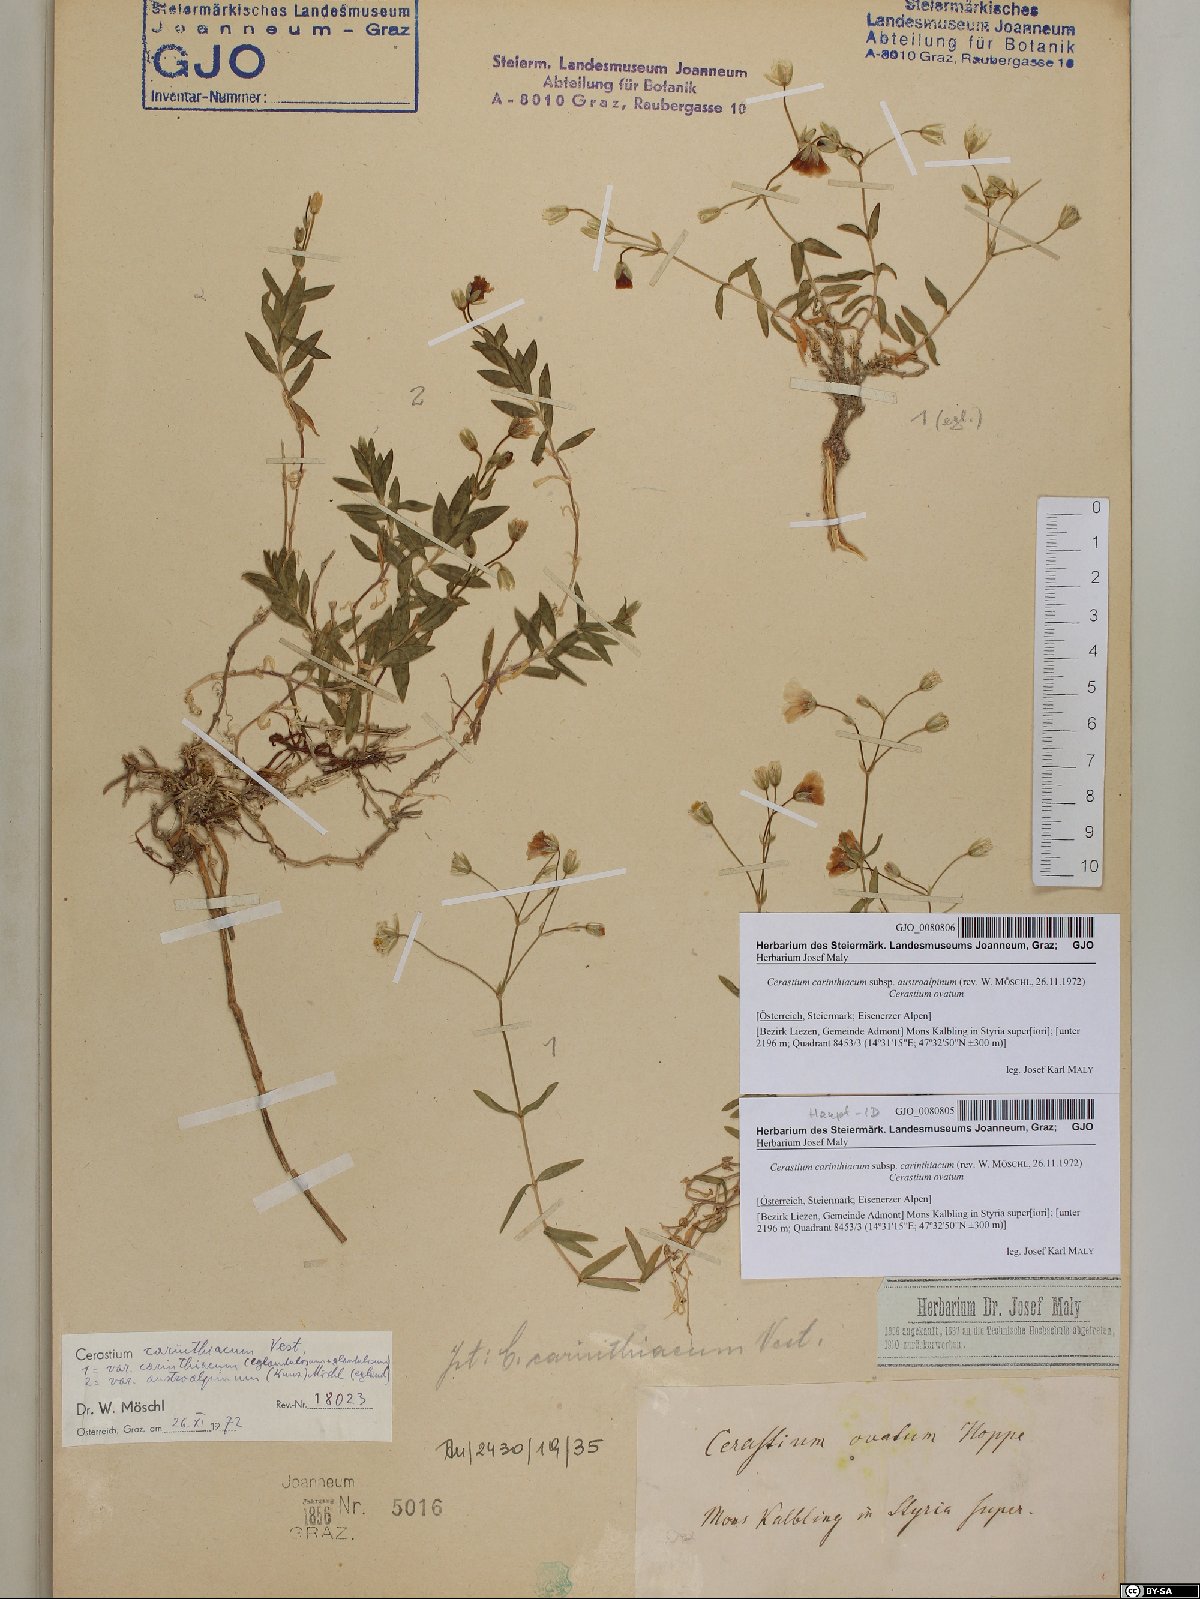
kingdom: Plantae
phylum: Tracheophyta
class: Magnoliopsida
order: Caryophyllales
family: Caryophyllaceae
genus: Cerastium
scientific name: Cerastium carinthiacum
